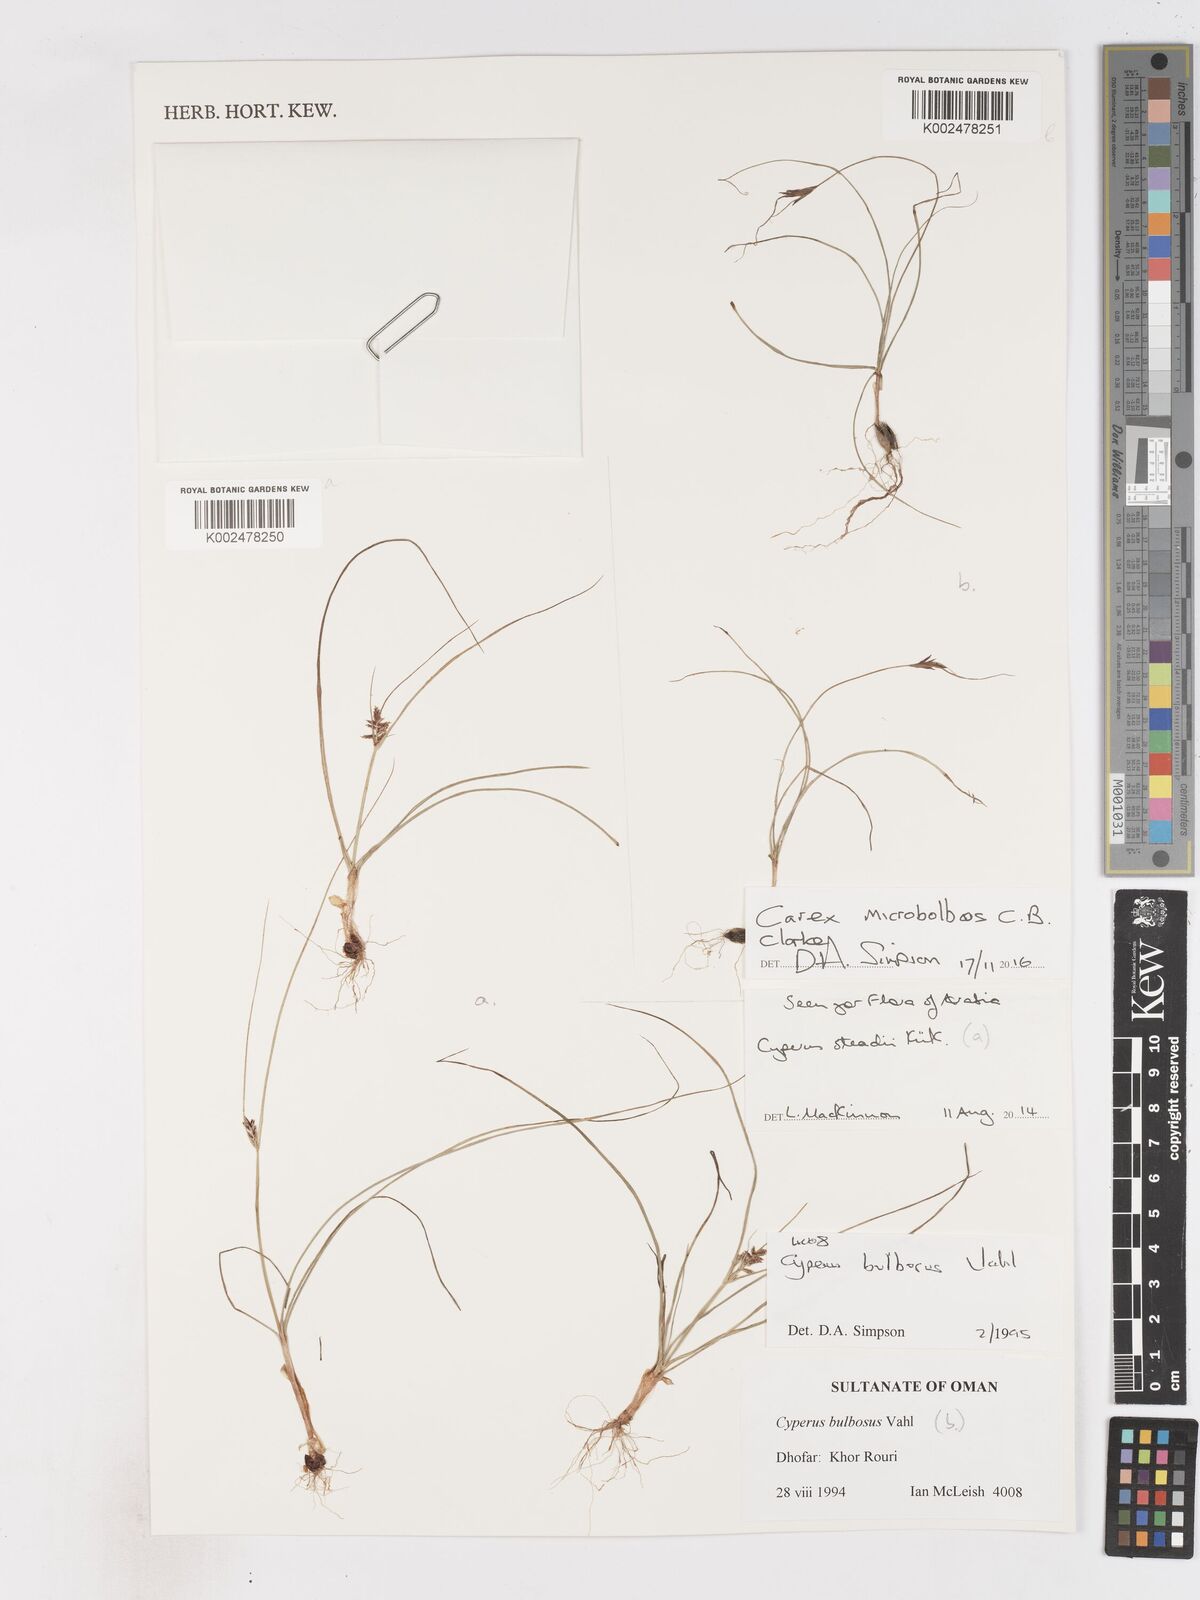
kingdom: Plantae
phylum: Tracheophyta
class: Liliopsida
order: Poales
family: Cyperaceae
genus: Cyperus
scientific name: Cyperus microbolbos
